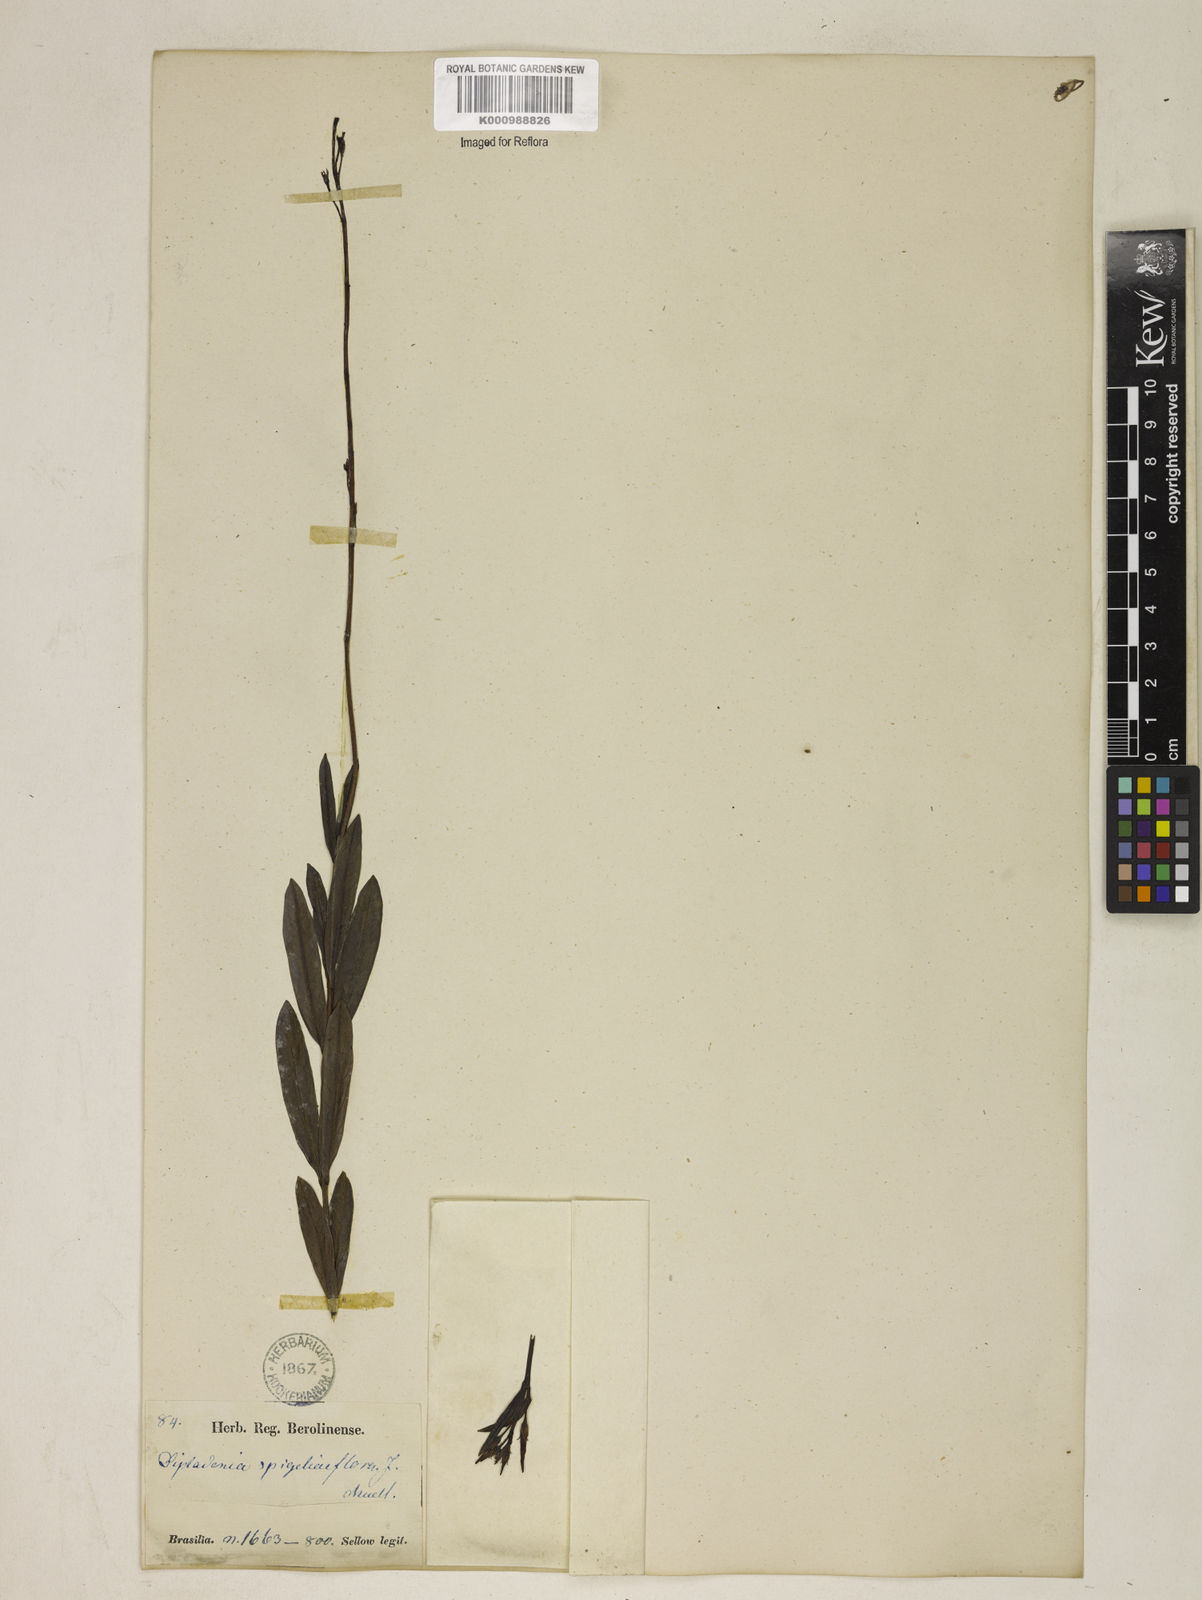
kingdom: Plantae
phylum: Tracheophyta
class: Magnoliopsida
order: Gentianales
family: Apocynaceae
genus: Mandevilla
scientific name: Mandevilla spigeliiflora
